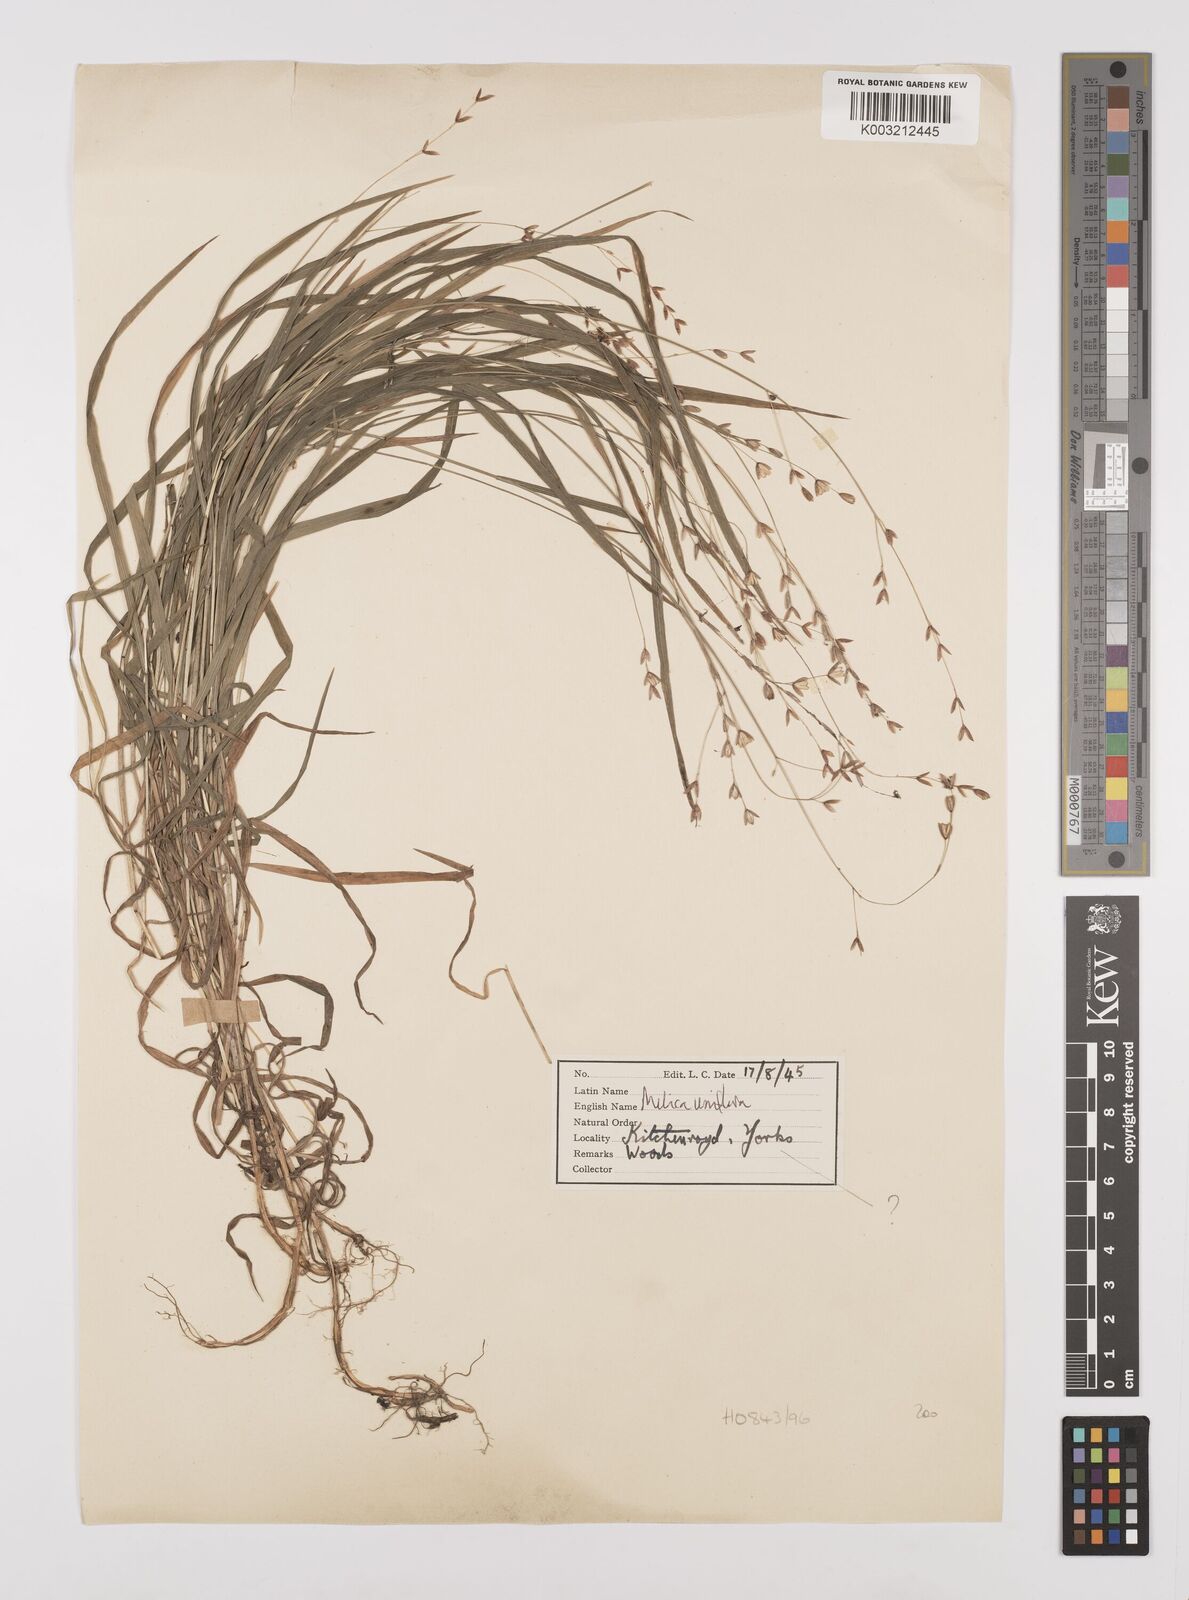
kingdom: Plantae
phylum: Tracheophyta
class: Liliopsida
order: Poales
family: Poaceae
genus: Melica
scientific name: Melica uniflora
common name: Wood melick
